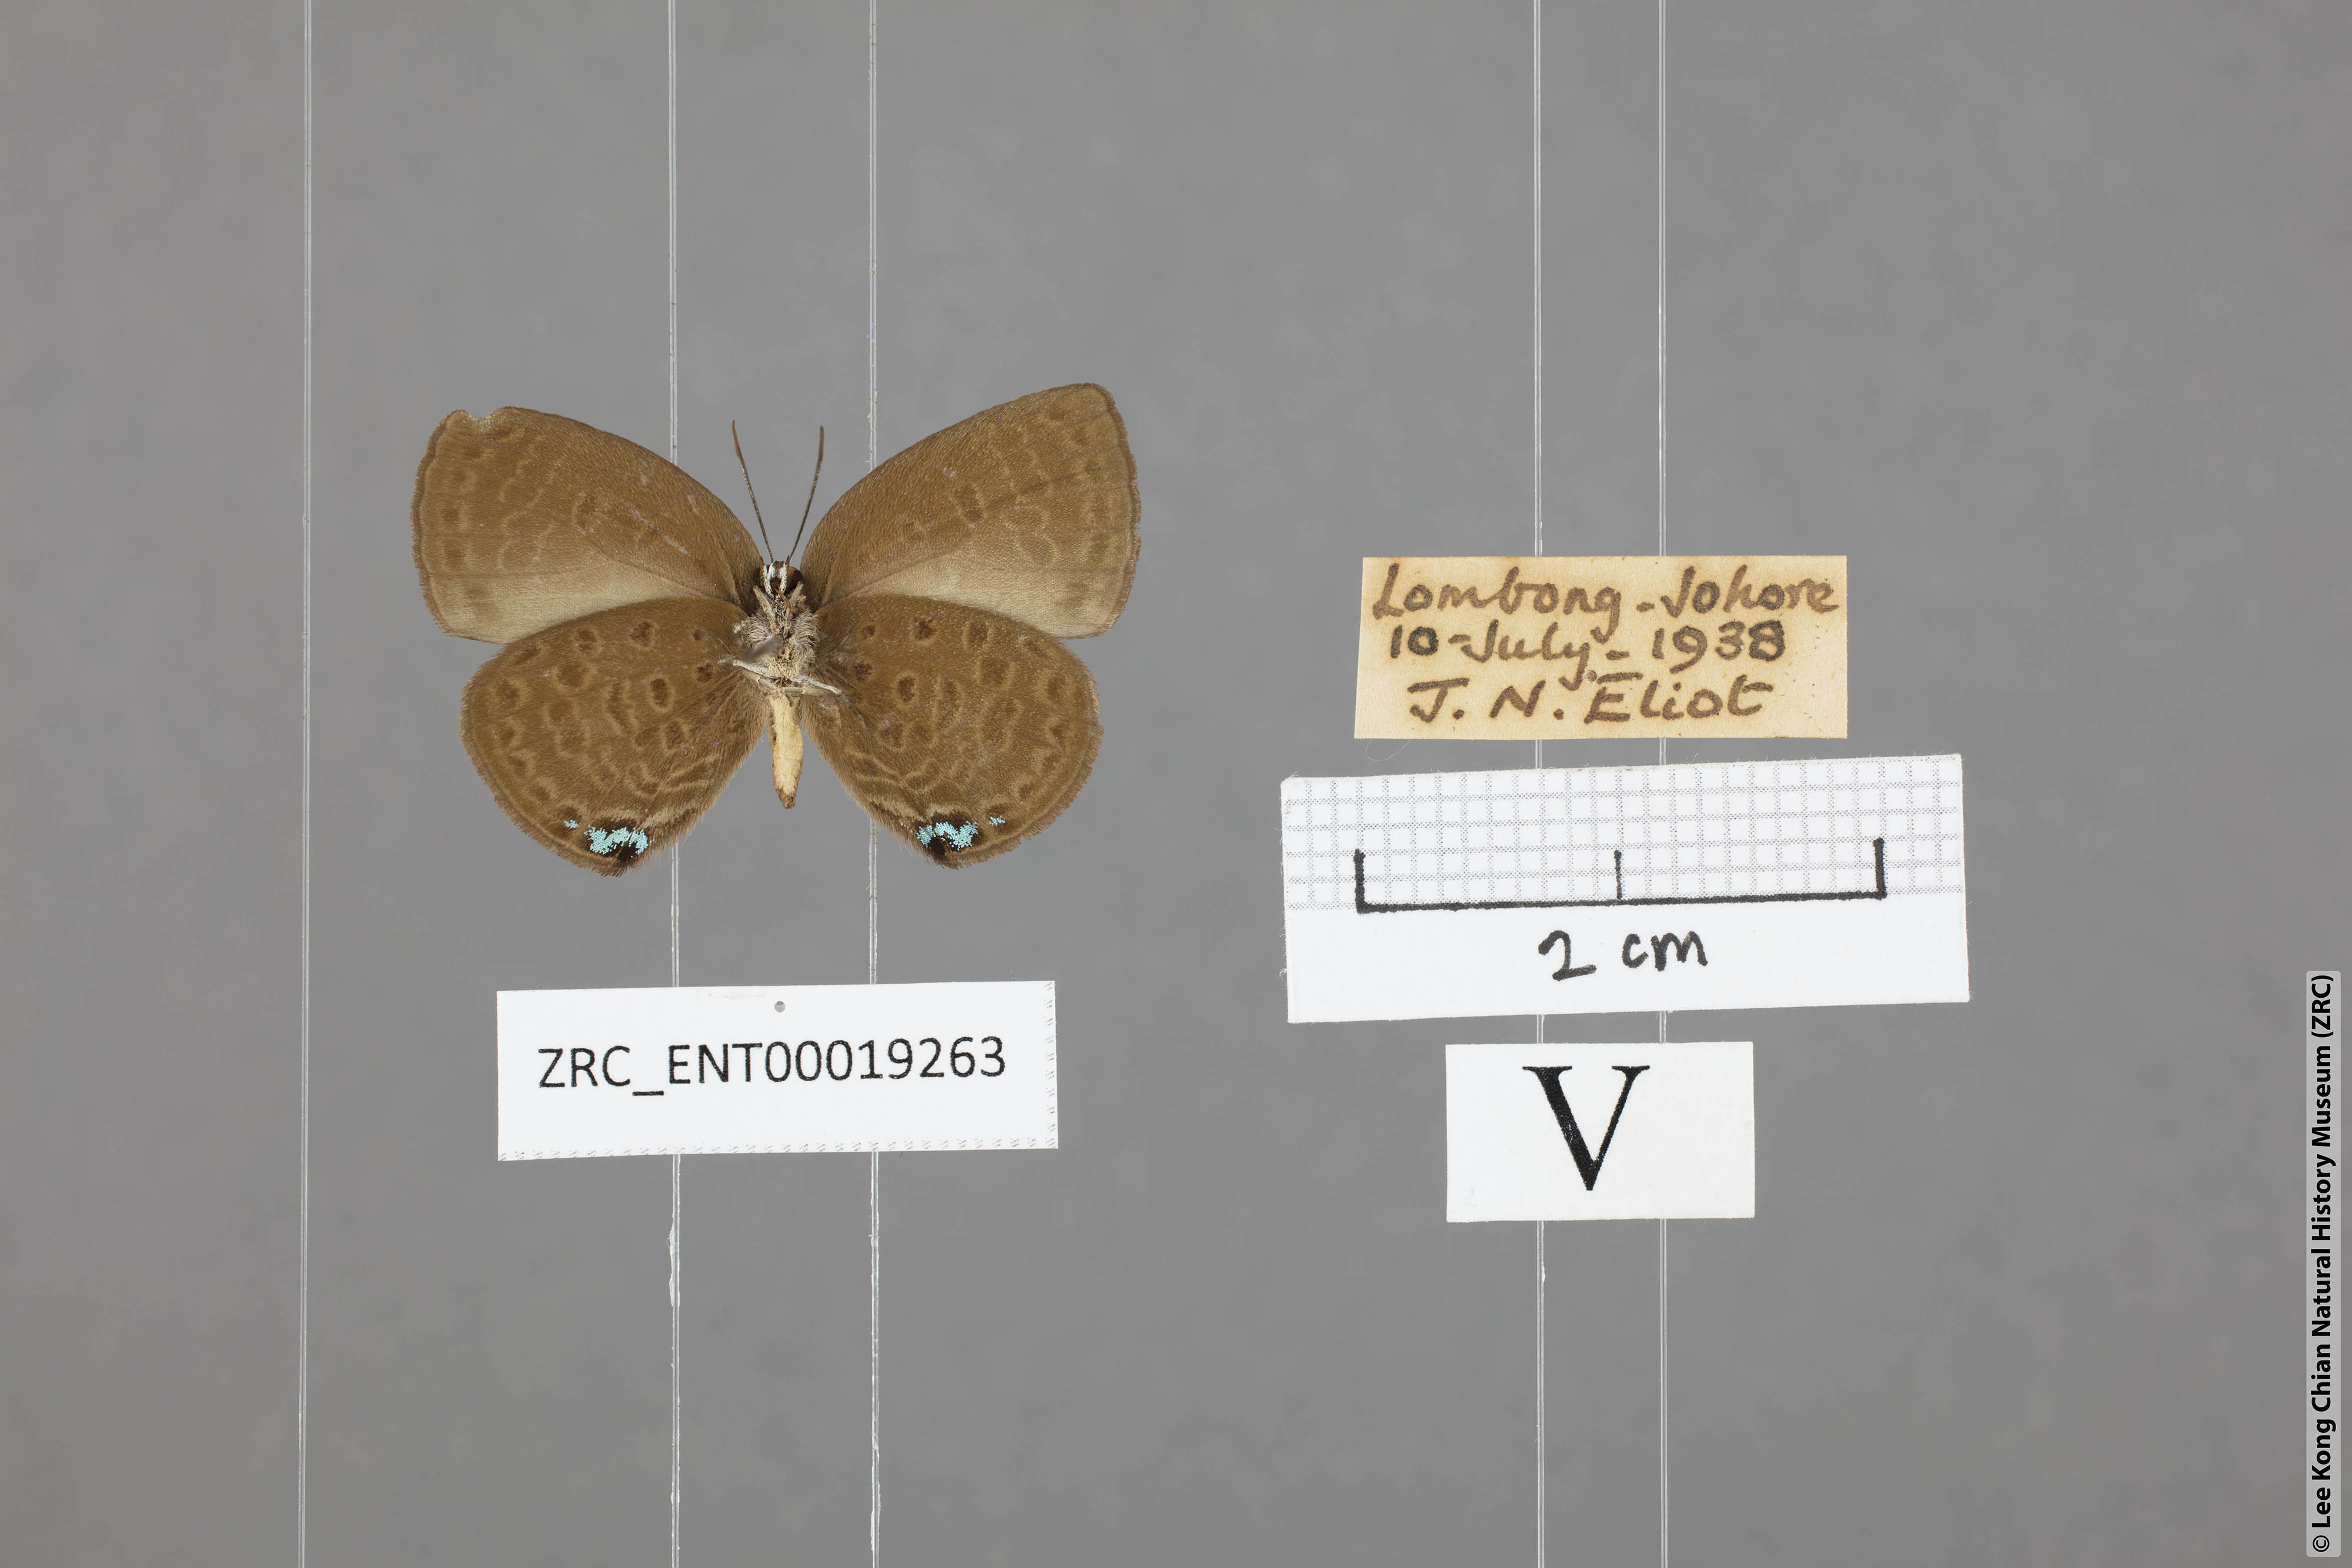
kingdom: Animalia
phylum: Arthropoda
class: Insecta
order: Lepidoptera
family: Lycaenidae
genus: Arhopala
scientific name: Arhopala avathina
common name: Lunulate yellow oakblue
